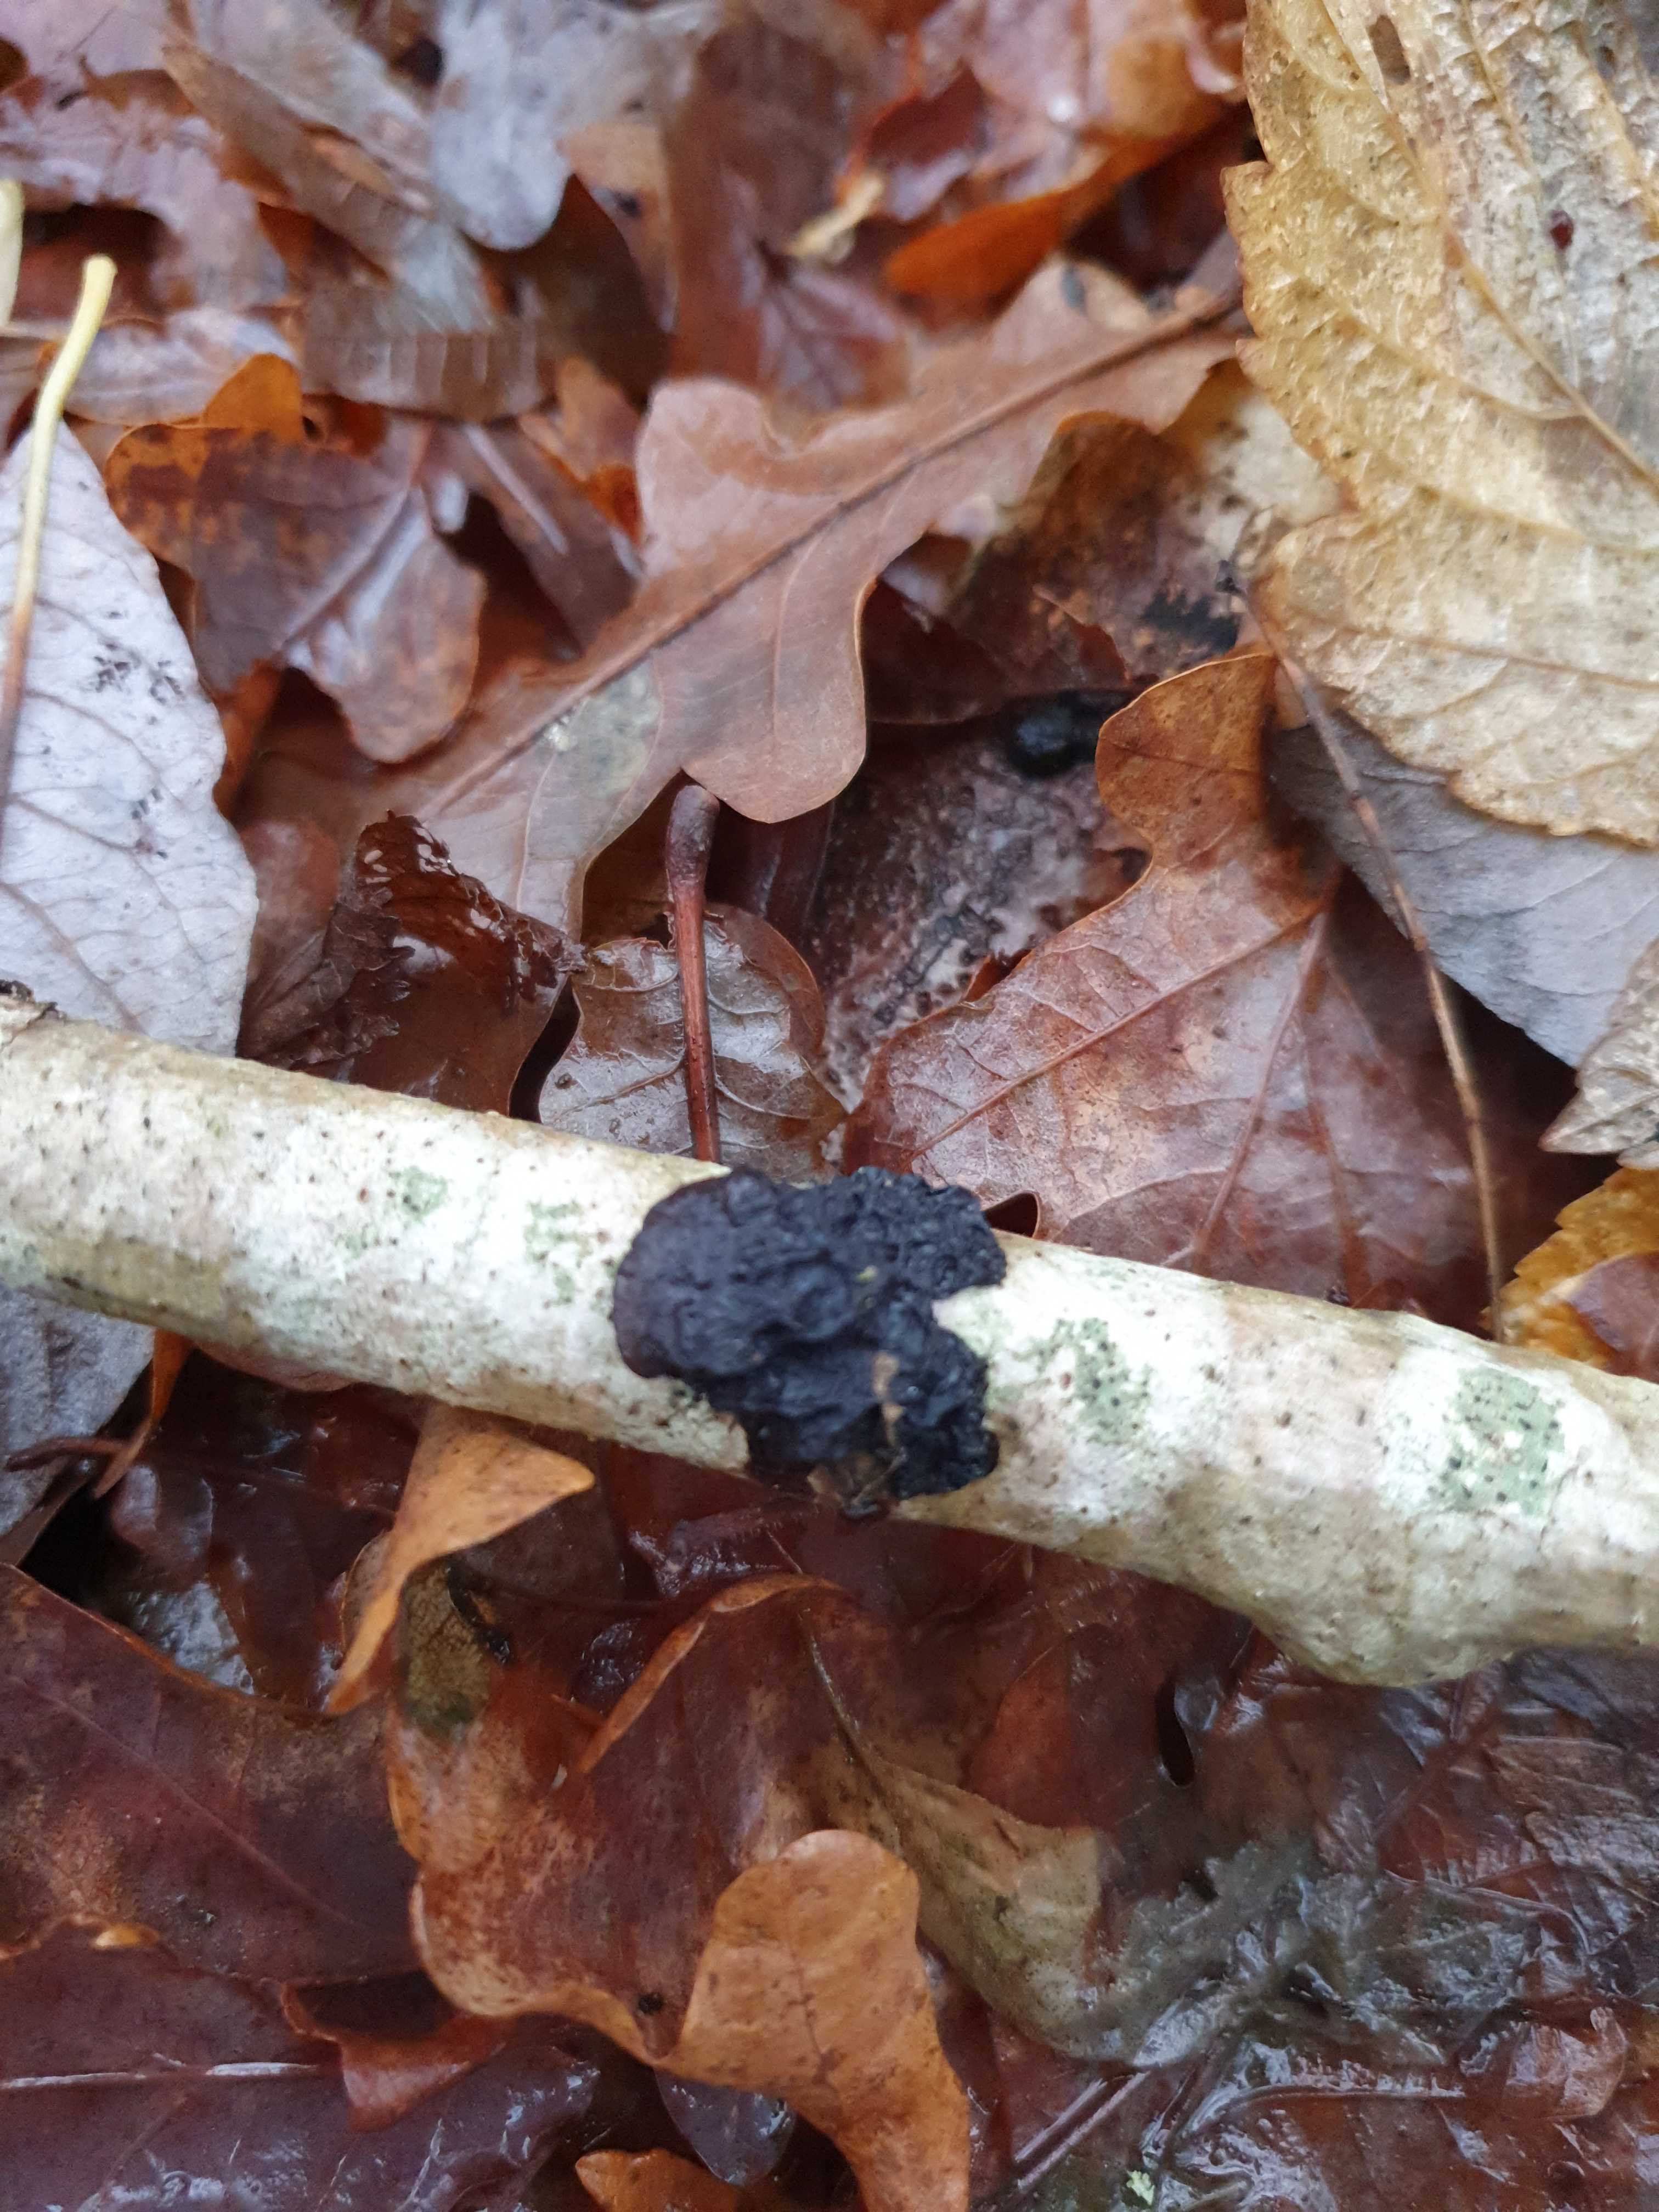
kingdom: Fungi
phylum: Basidiomycota
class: Agaricomycetes
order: Auriculariales
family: Auriculariaceae
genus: Exidia
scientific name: Exidia glandulosa
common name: ege-bævretop
